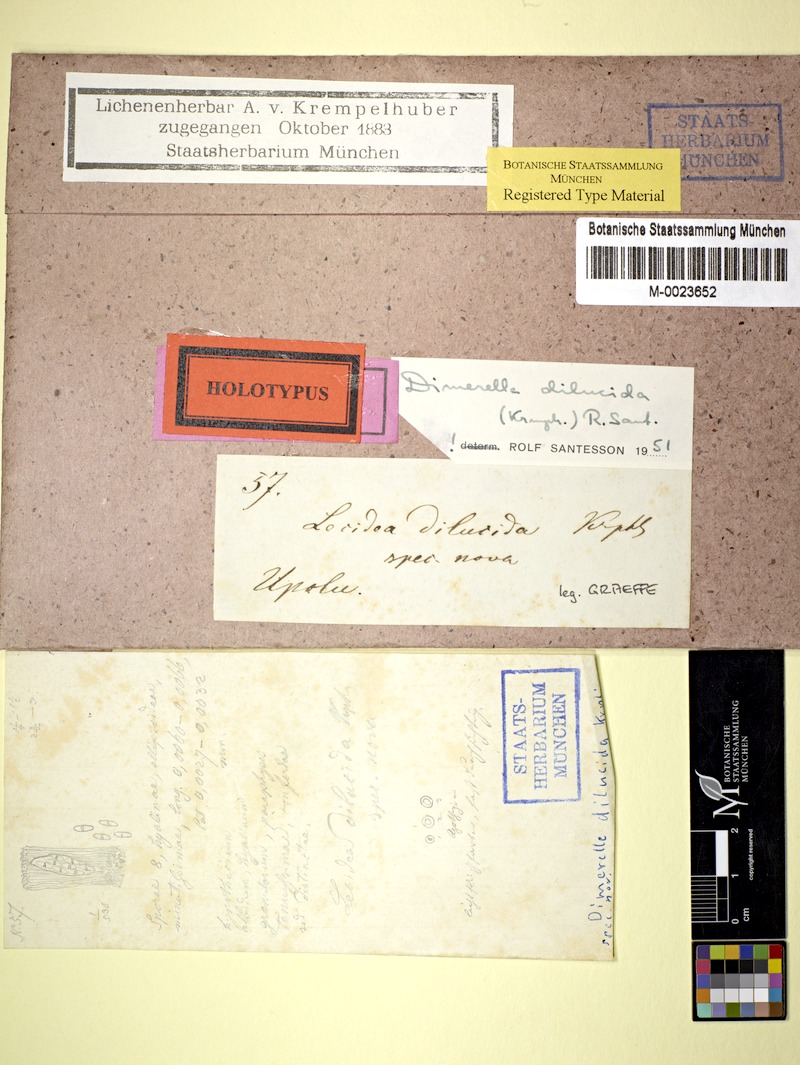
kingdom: Fungi
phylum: Ascomycota
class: Lecanoromycetes
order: Ostropales
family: Coenogoniaceae
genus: Coenogonium
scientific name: Coenogonium dilucidum
